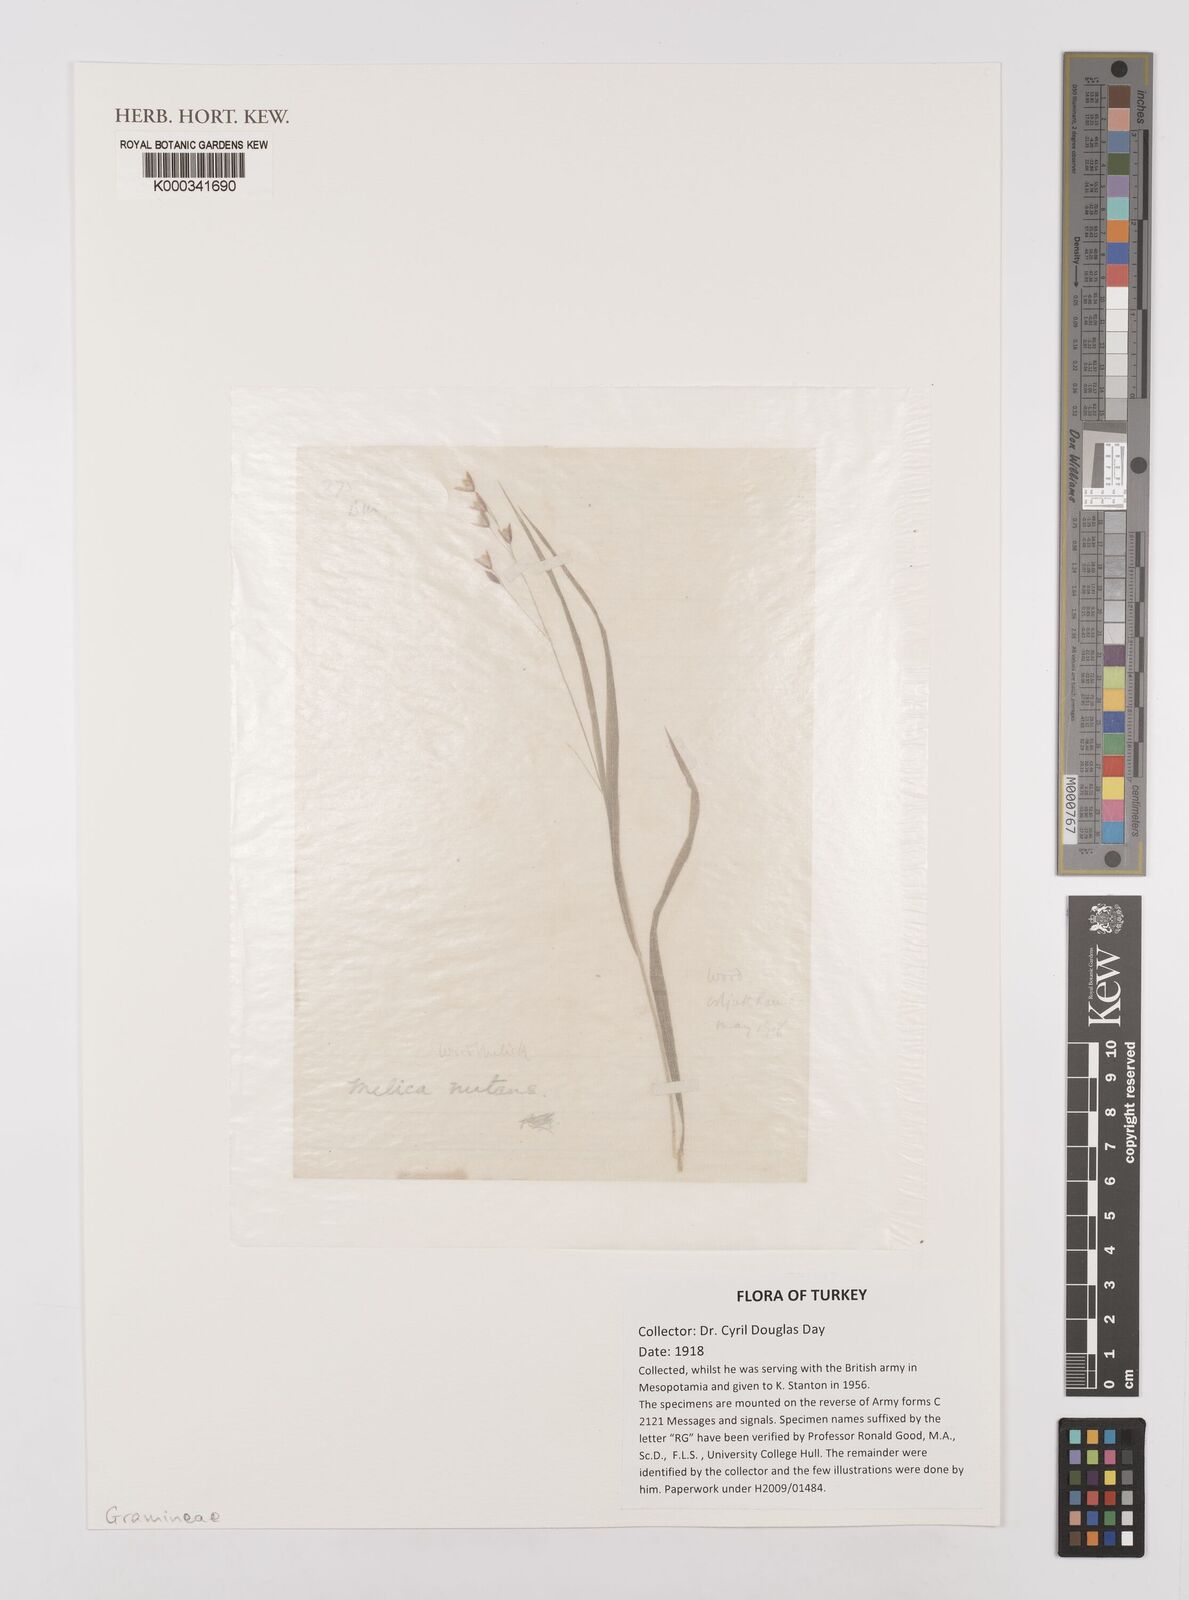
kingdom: Plantae
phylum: Tracheophyta
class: Liliopsida
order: Poales
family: Poaceae
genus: Melica
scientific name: Melica nutans
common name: Mountain melick
